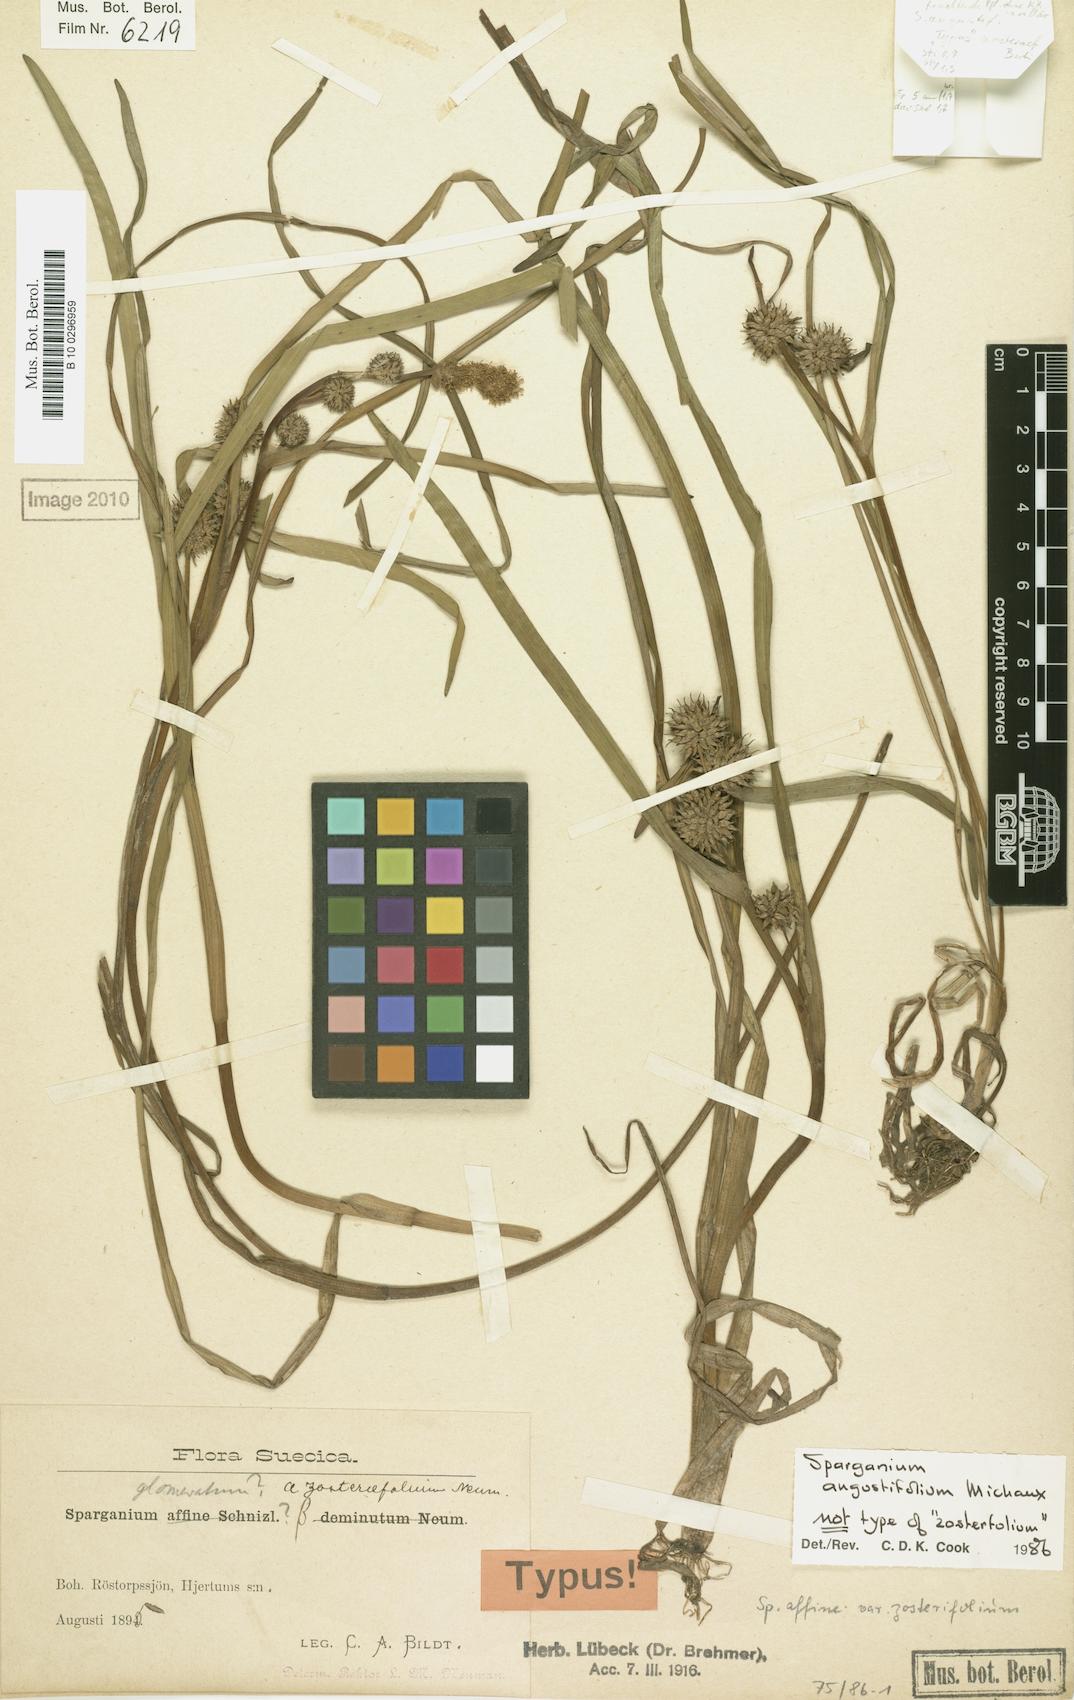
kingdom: Plantae
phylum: Tracheophyta
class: Liliopsida
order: Poales
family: Typhaceae
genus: Sparganium
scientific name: Sparganium angustifolium
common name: Floating bur-reed
